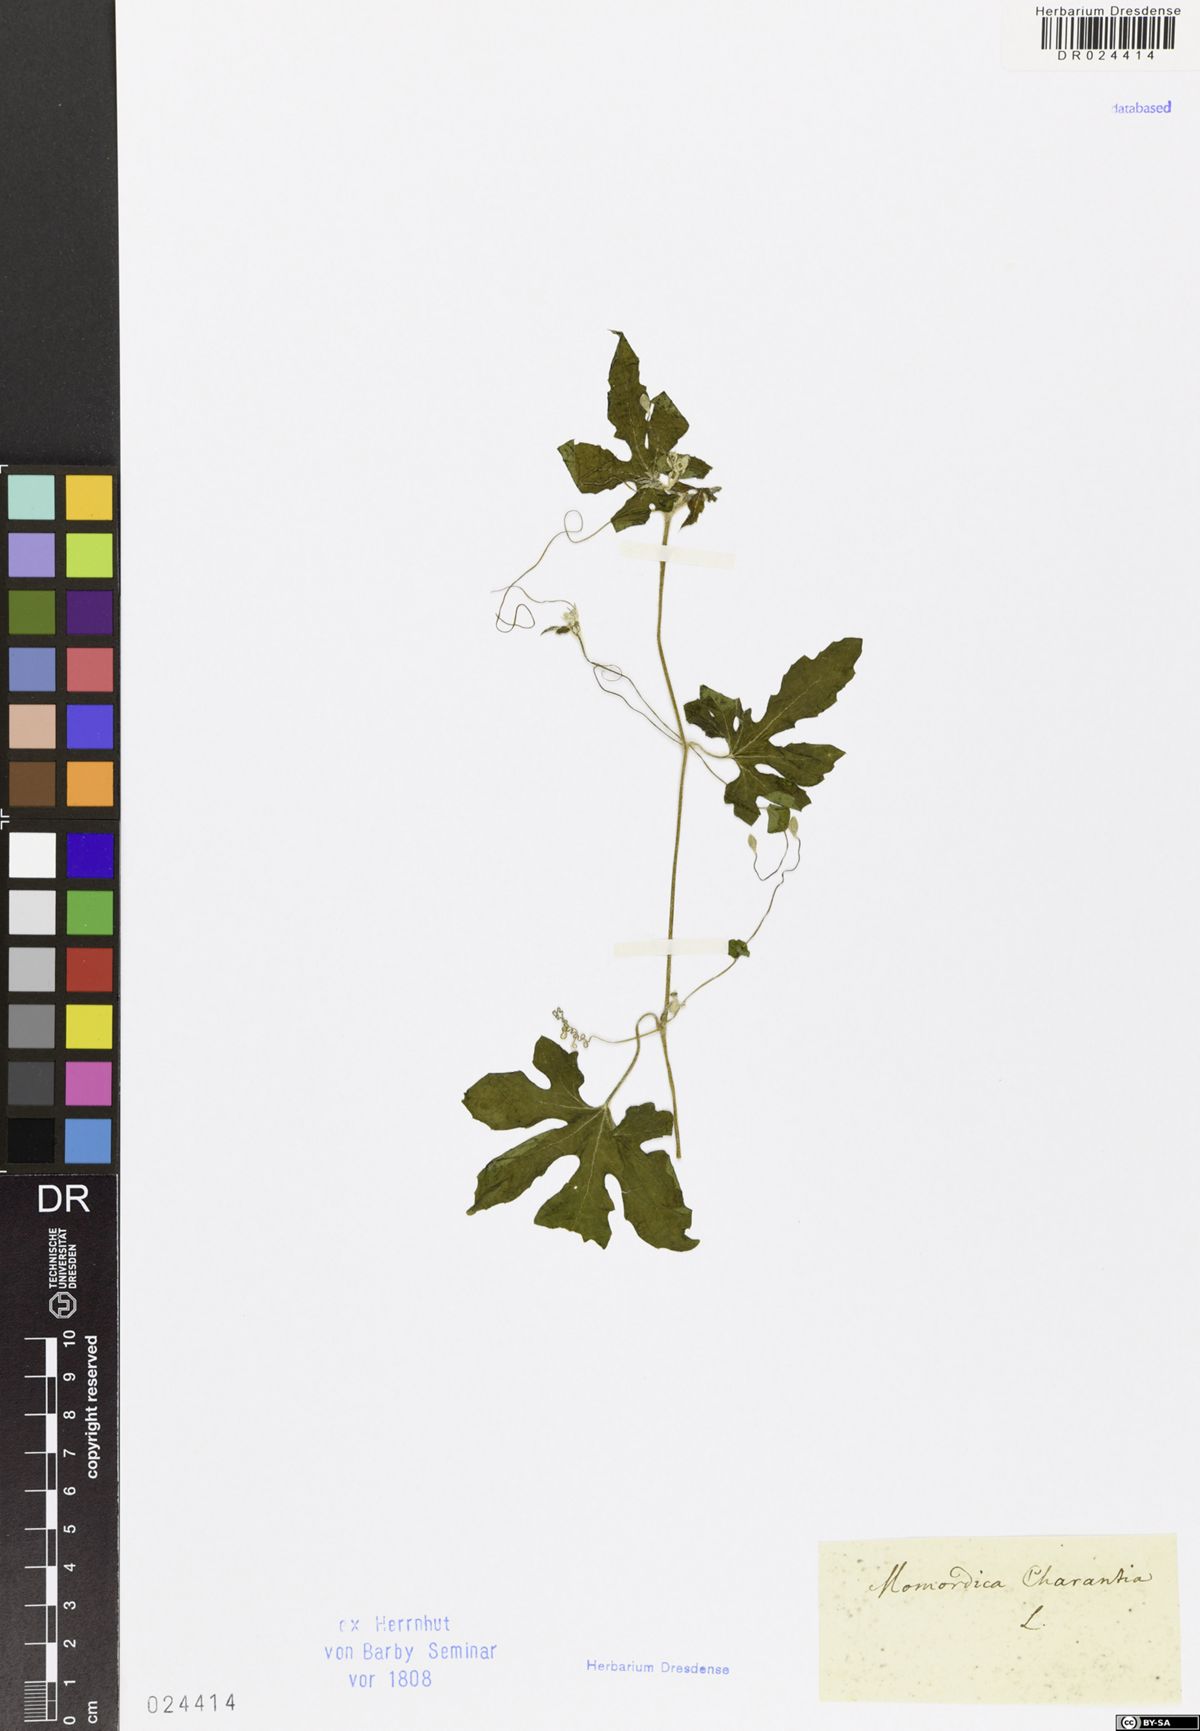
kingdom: Plantae
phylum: Tracheophyta
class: Magnoliopsida
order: Cucurbitales
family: Cucurbitaceae
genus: Momordica
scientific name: Momordica charantia
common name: Balsampear
